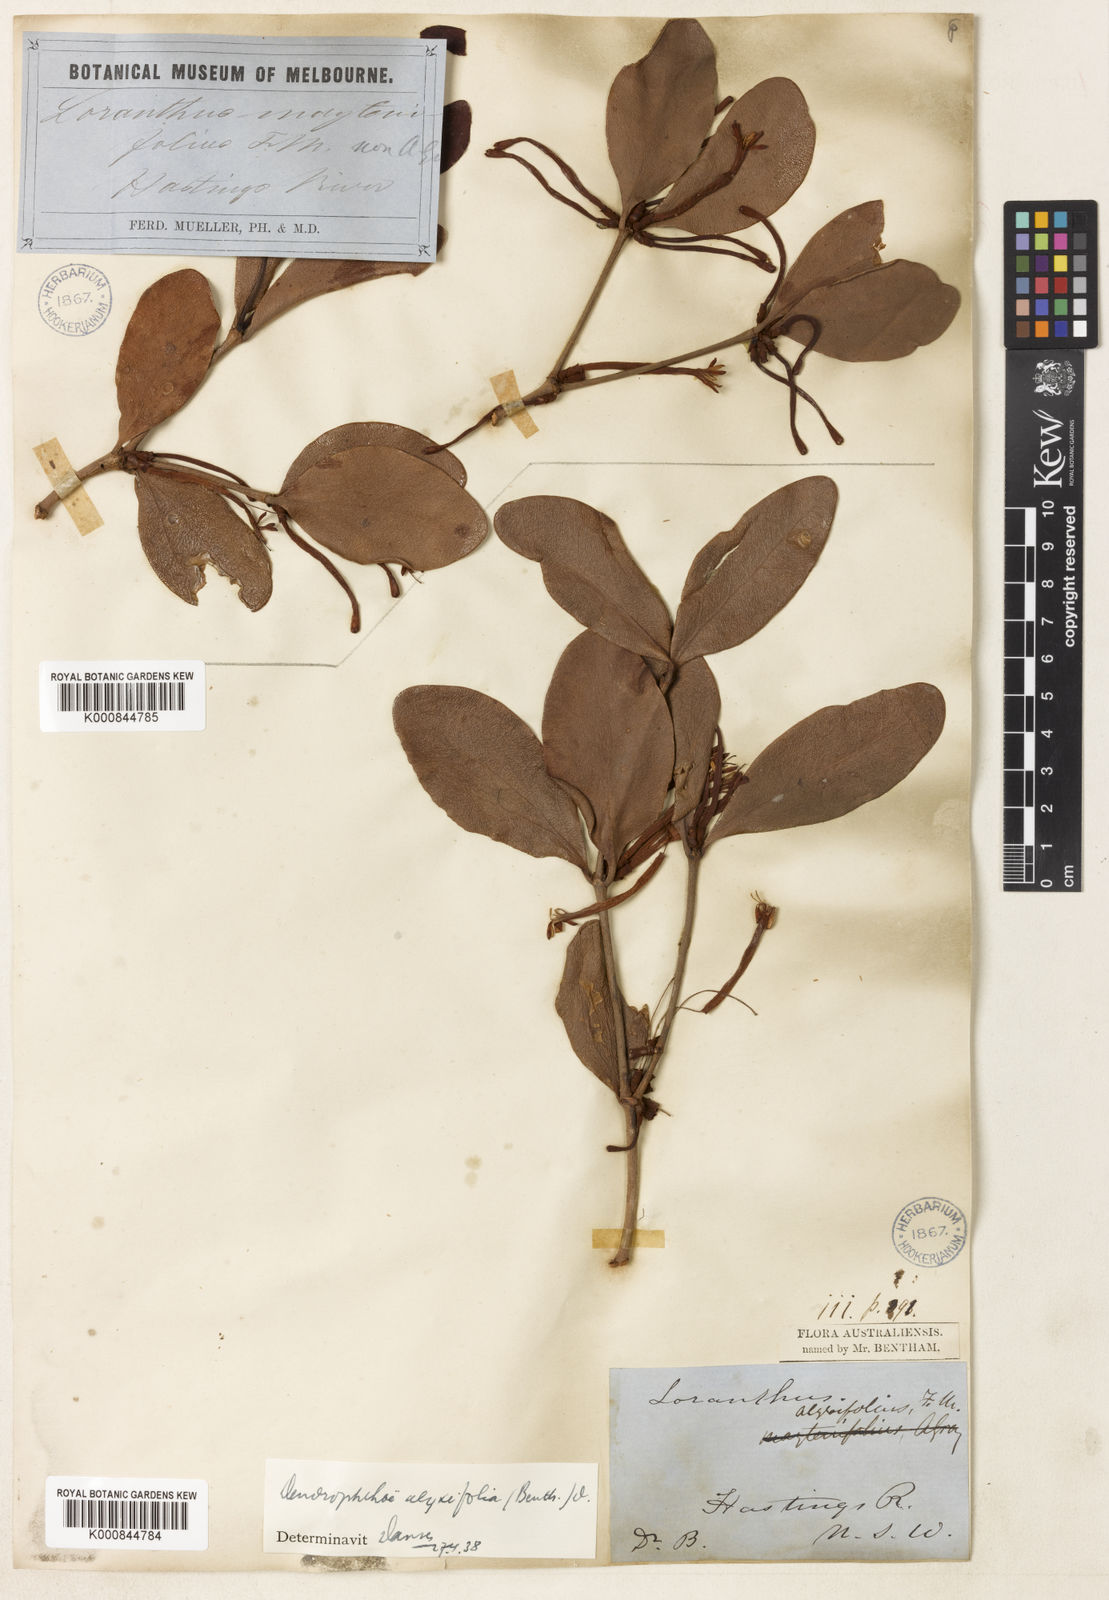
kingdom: Plantae
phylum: Tracheophyta
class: Magnoliopsida
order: Santalales
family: Loranthaceae
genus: Benthamina
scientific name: Benthamina alyxifolia
